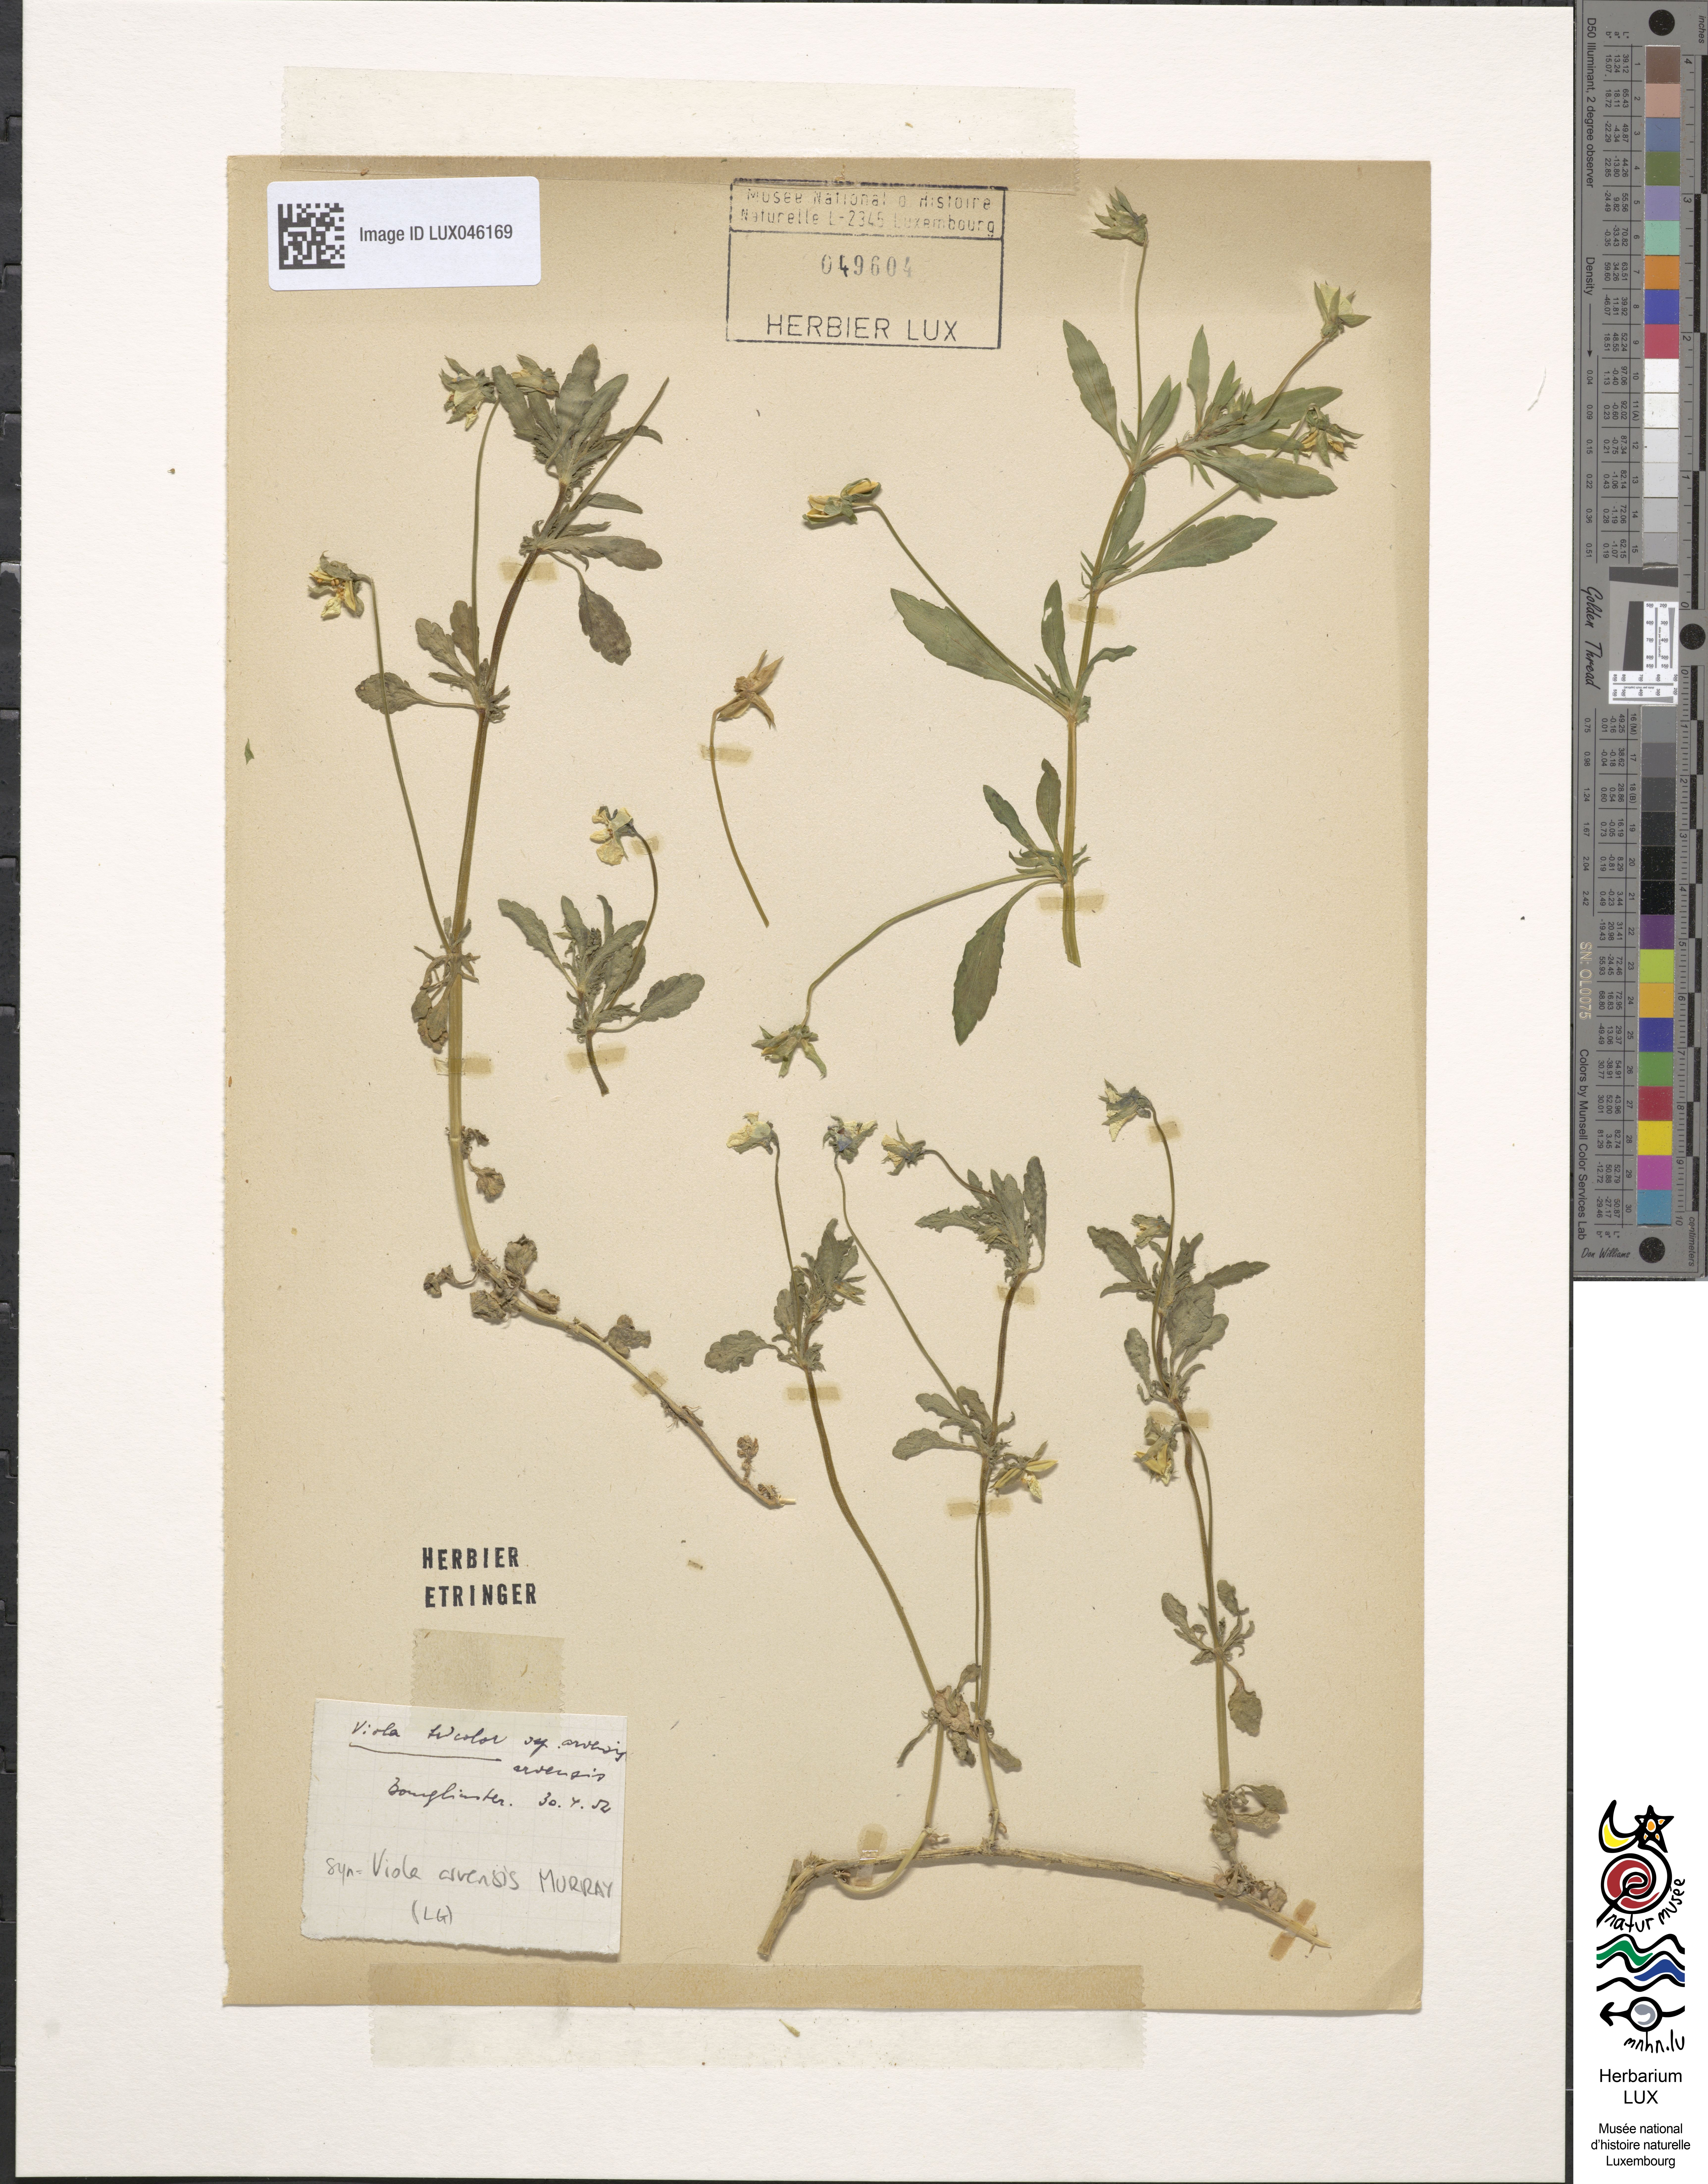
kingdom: Plantae
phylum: Tracheophyta
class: Magnoliopsida
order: Malpighiales
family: Violaceae
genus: Viola
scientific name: Viola arvensis
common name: Field pansy
